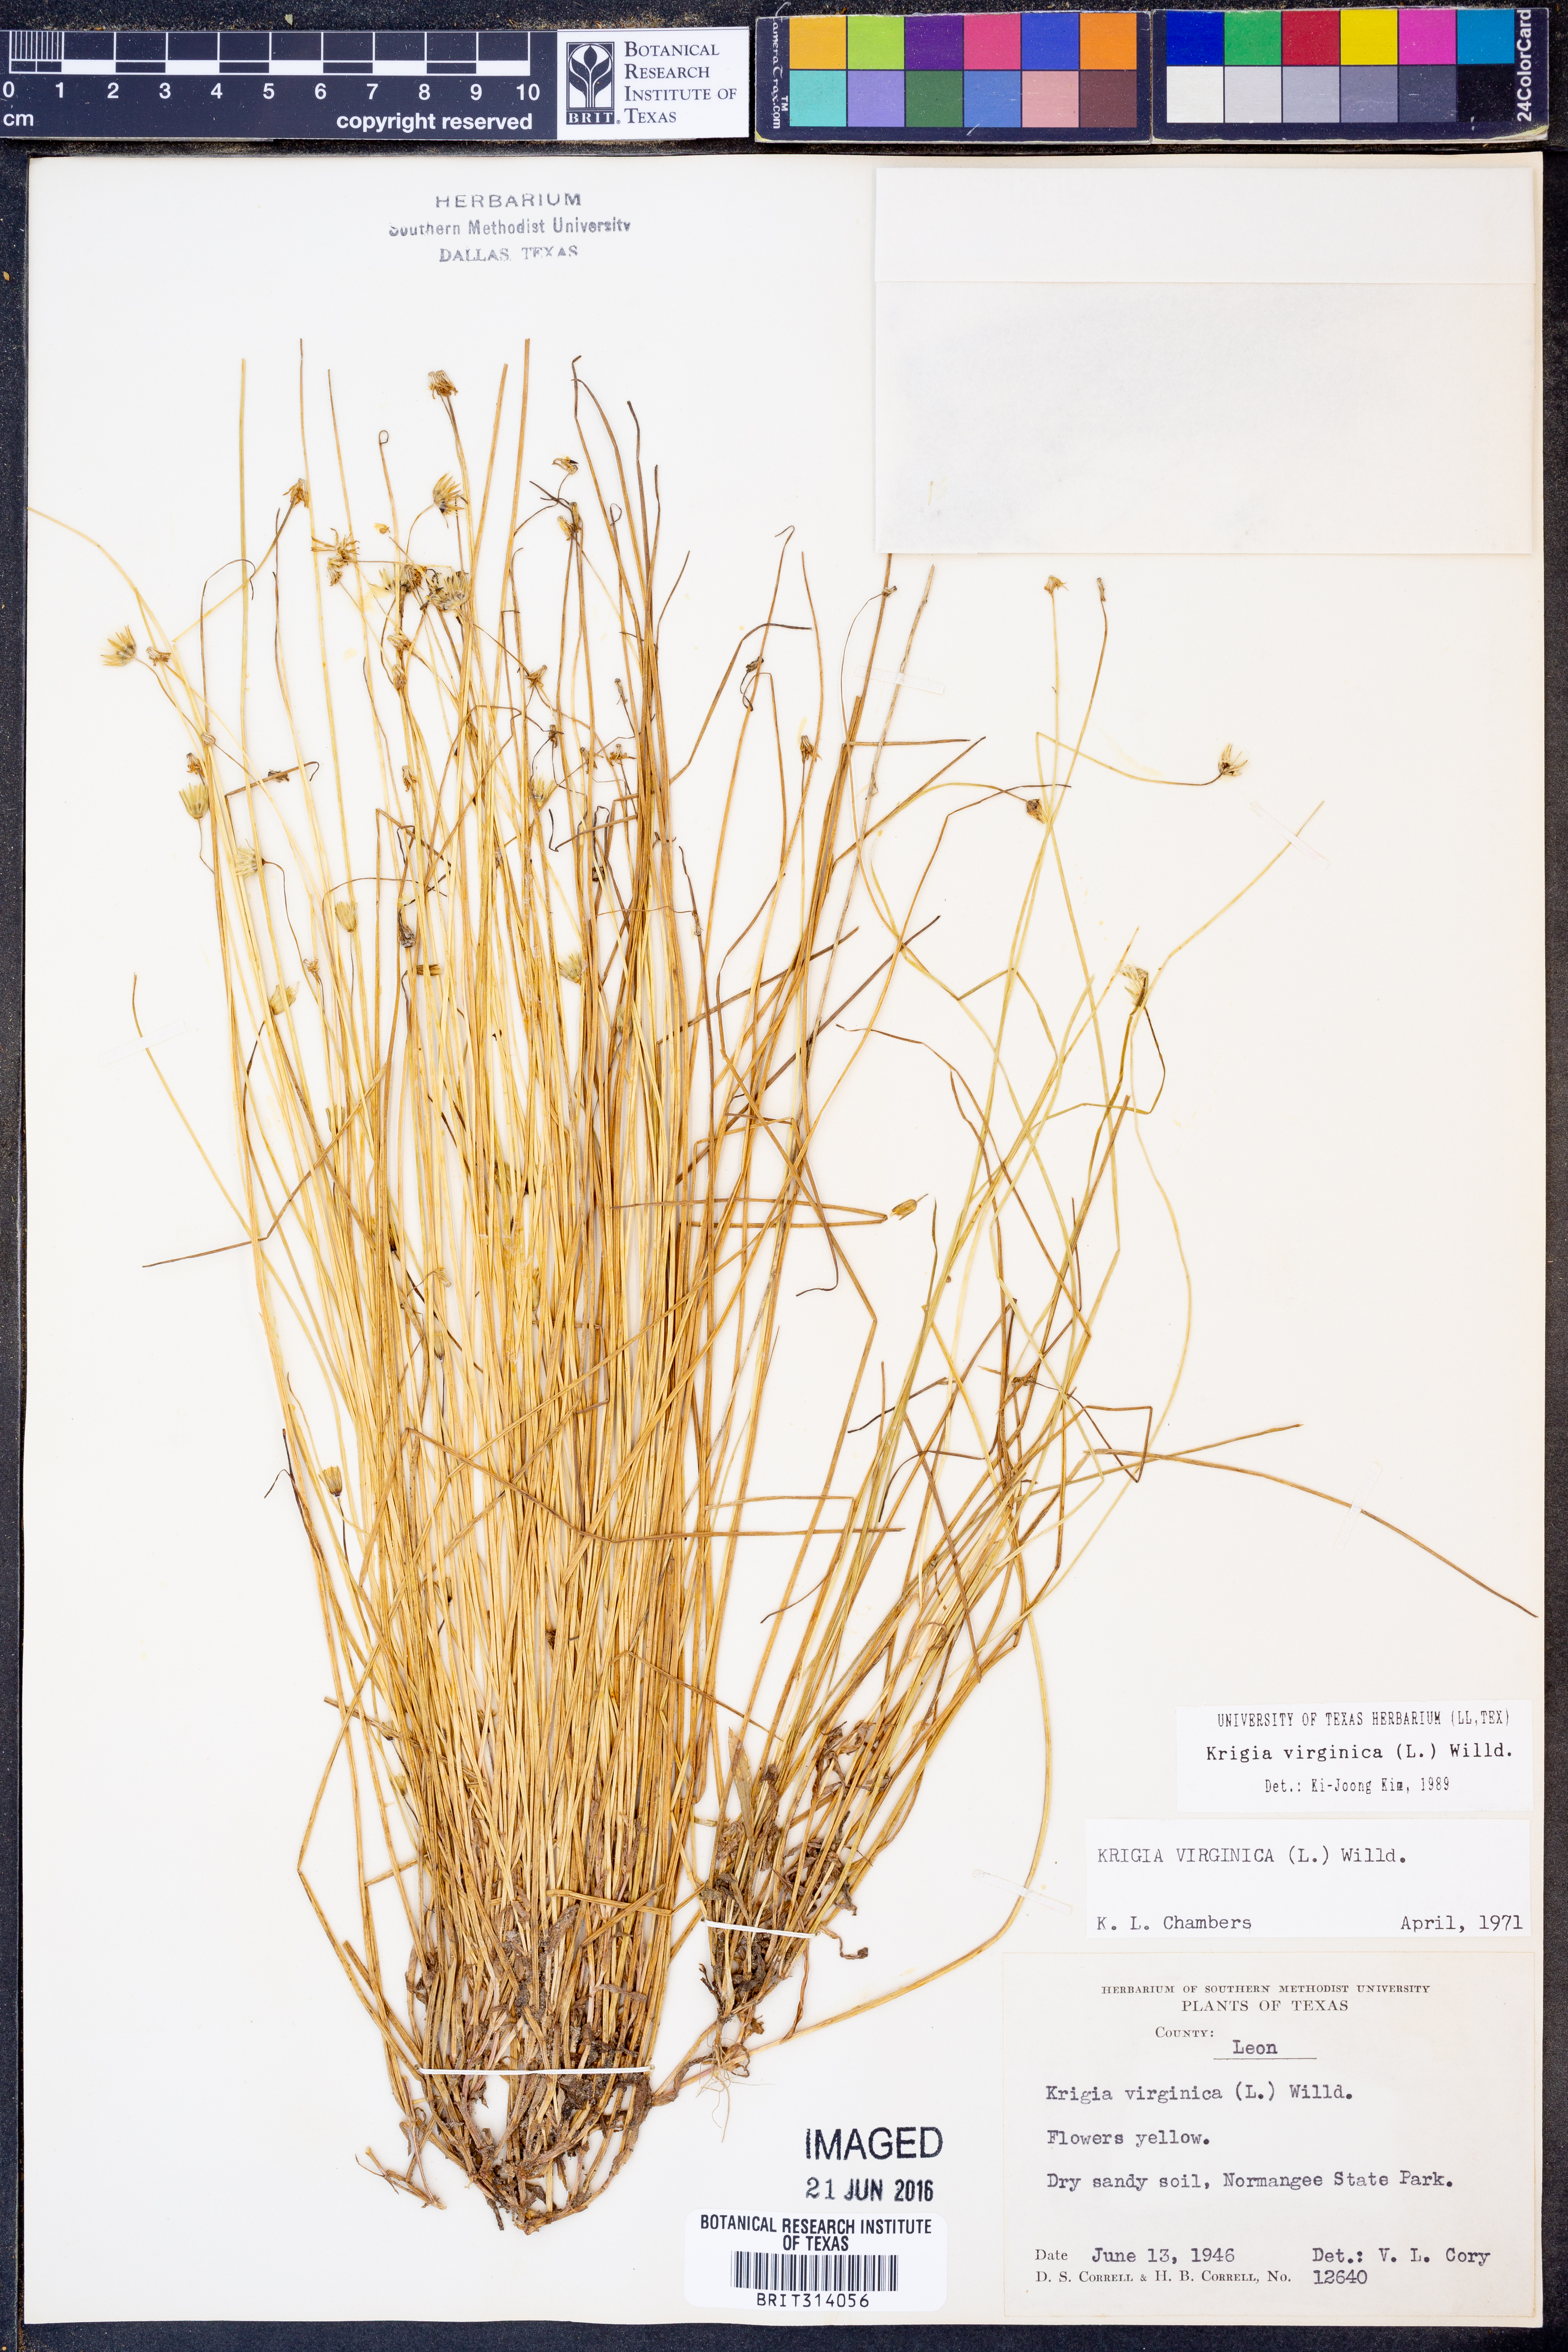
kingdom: Plantae
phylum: Tracheophyta
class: Magnoliopsida
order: Asterales
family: Asteraceae
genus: Krigia
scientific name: Krigia virginica
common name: Virginia dwarf-dandelion
